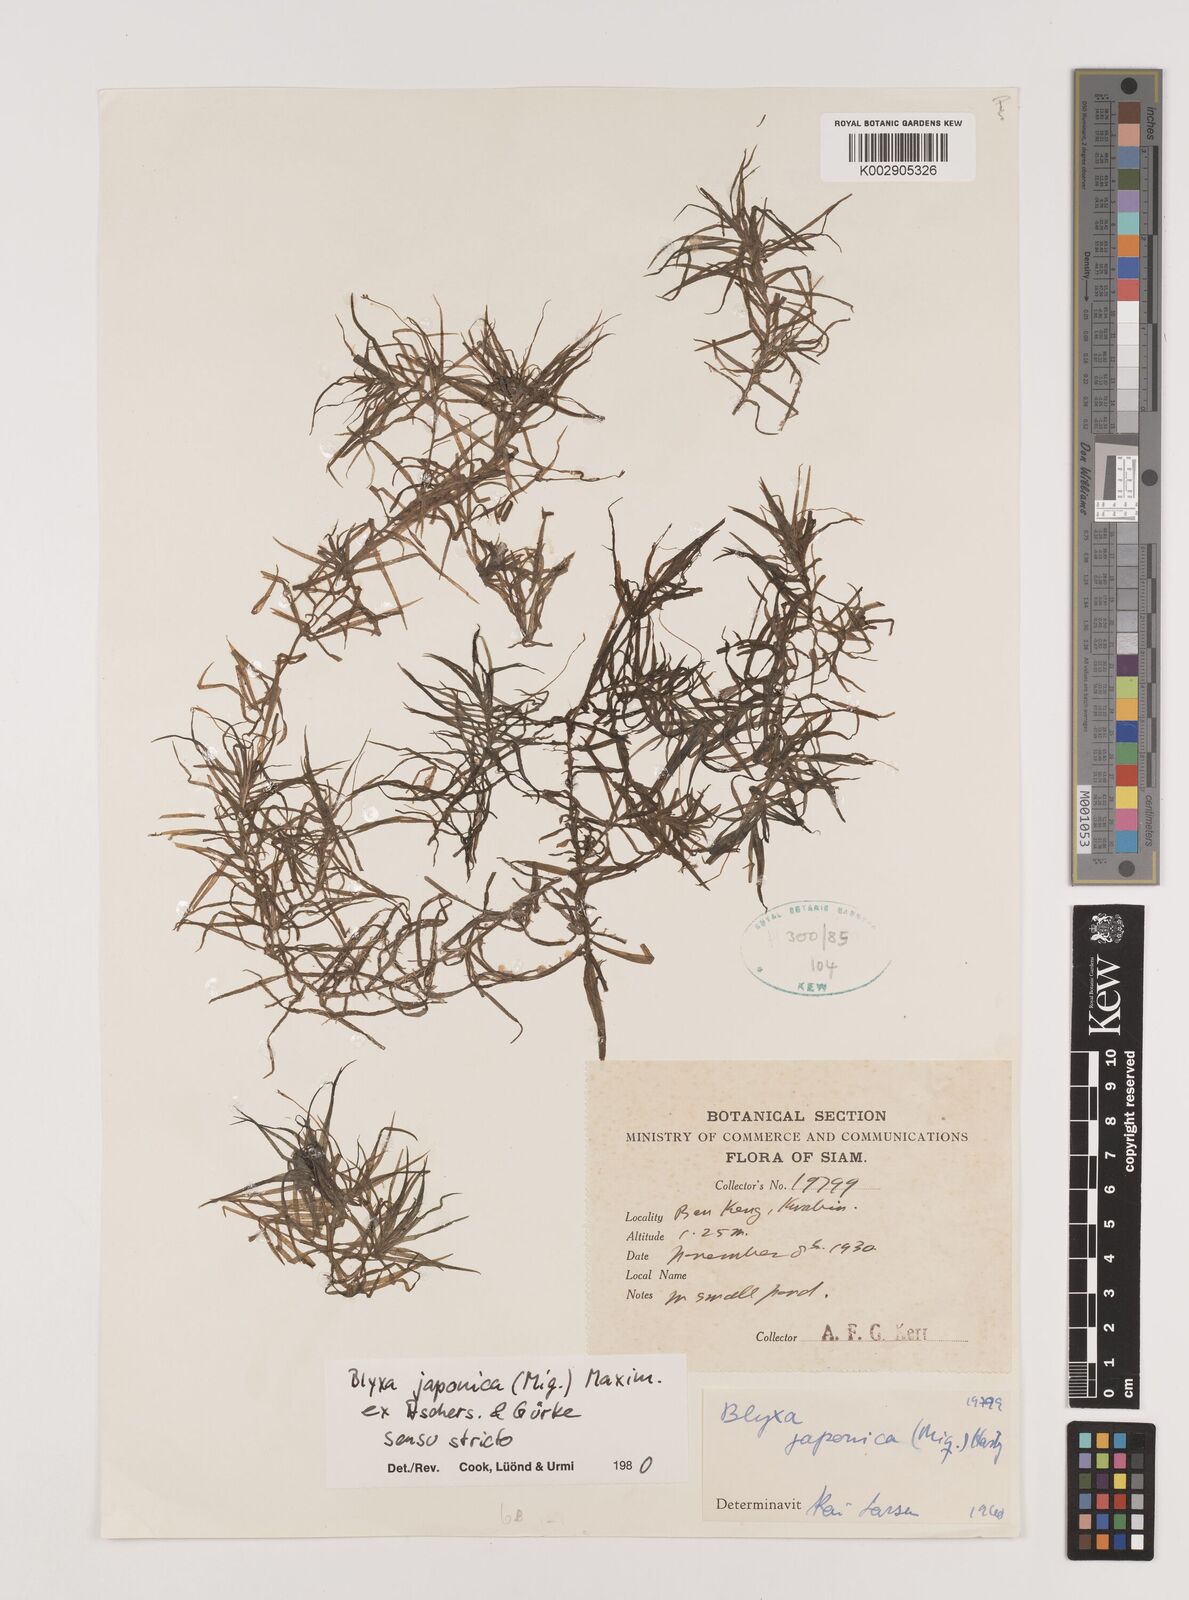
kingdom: Plantae
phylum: Tracheophyta
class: Liliopsida
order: Alismatales
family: Hydrocharitaceae
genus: Blyxa
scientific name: Blyxa japonica
